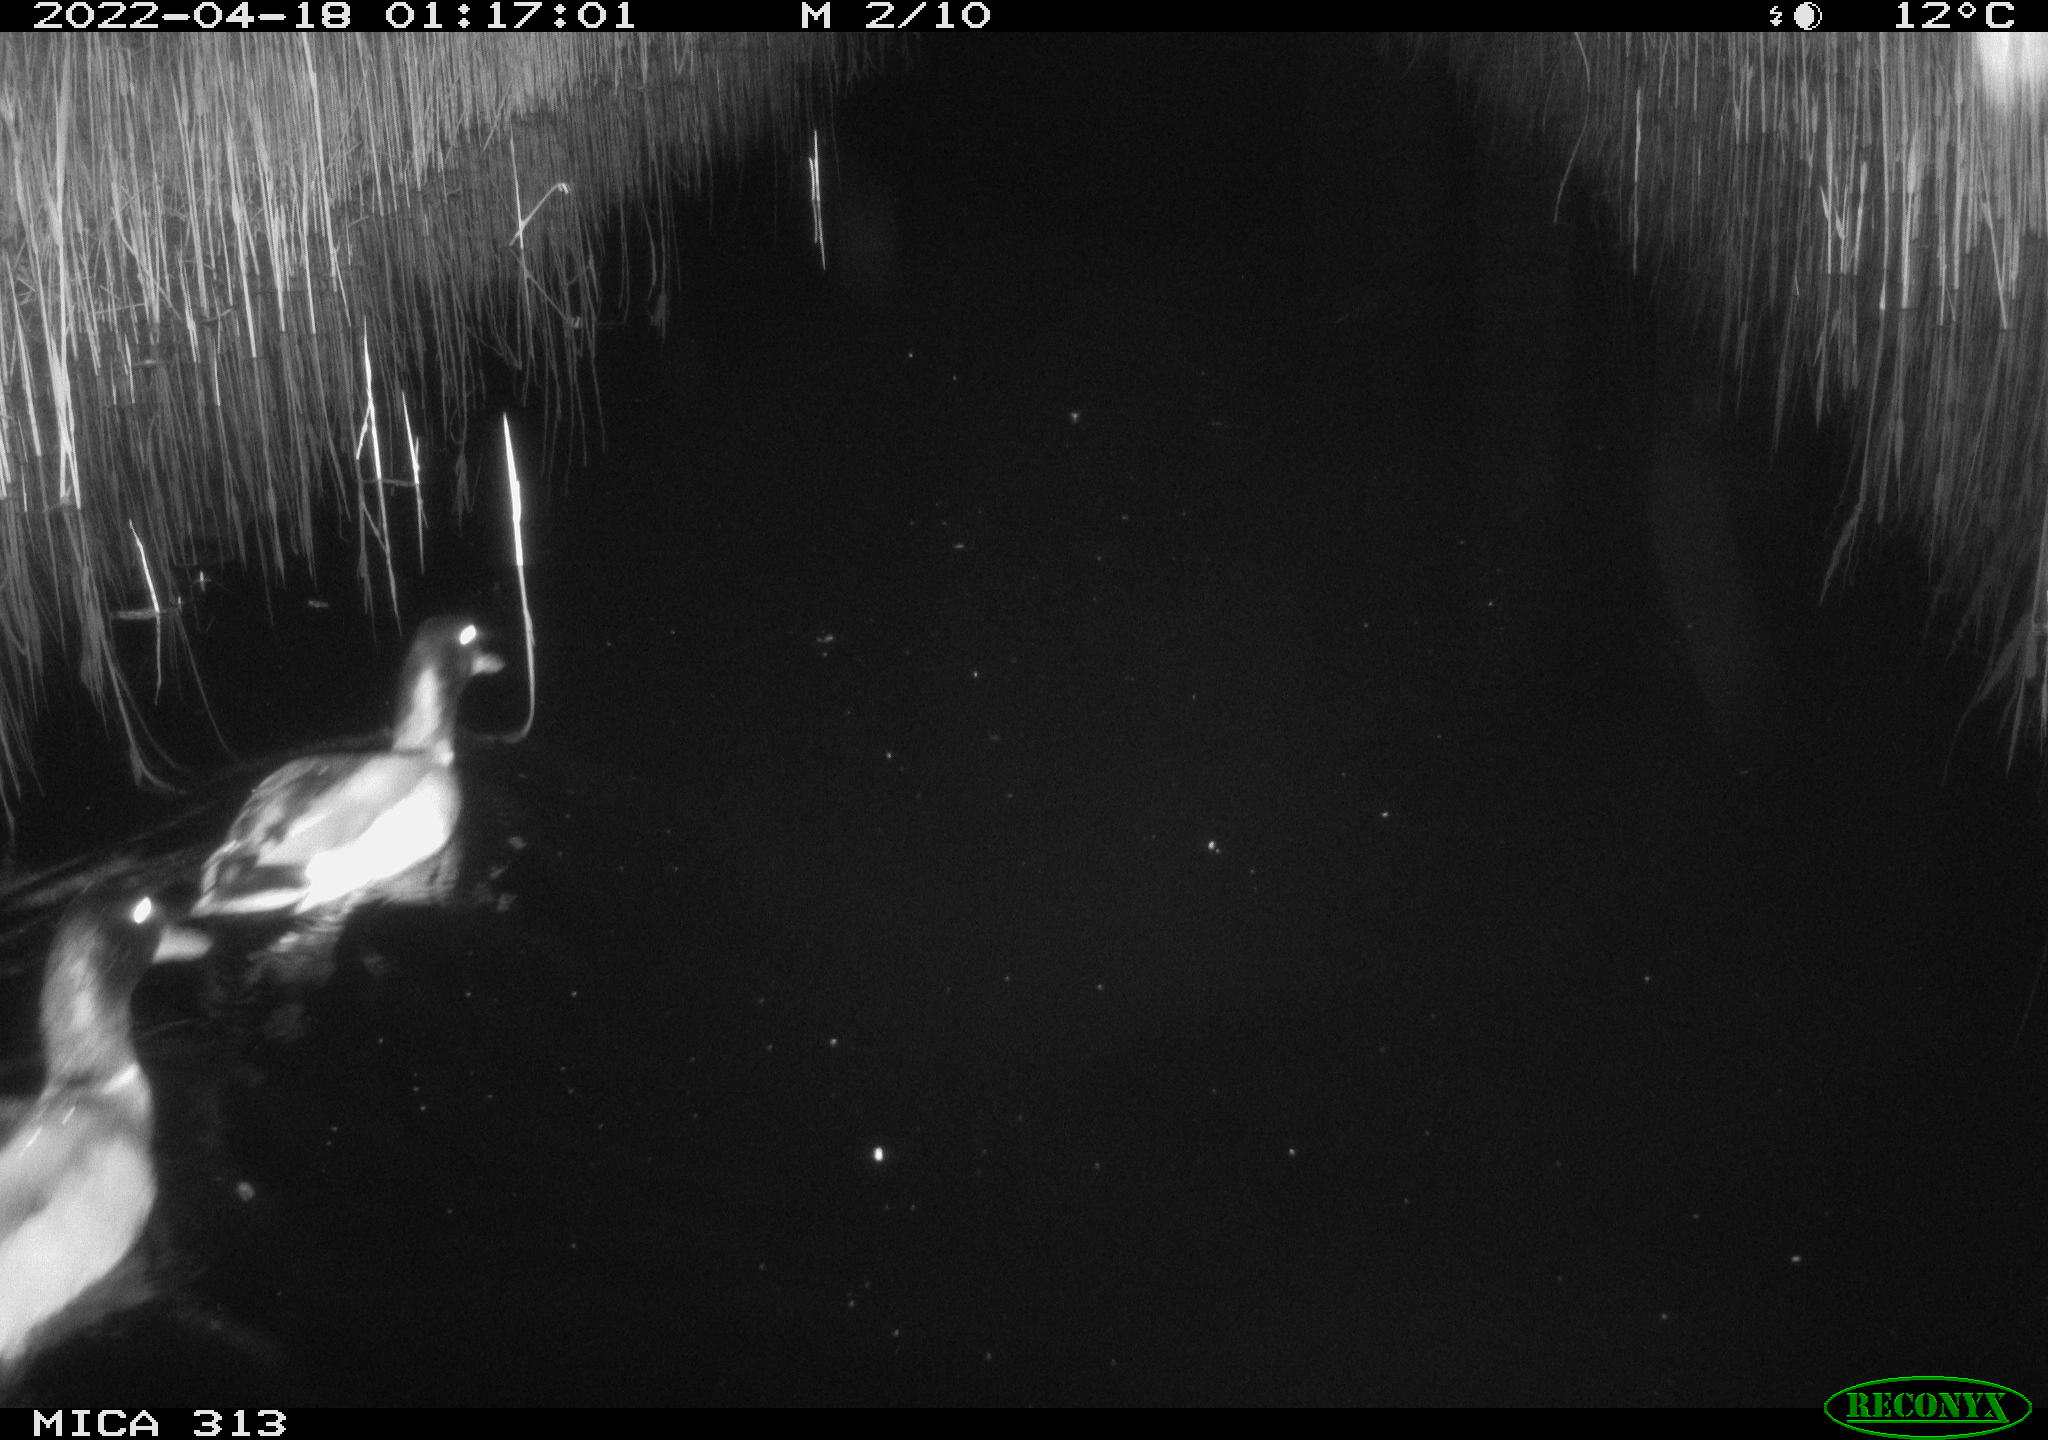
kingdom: Animalia
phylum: Chordata
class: Aves
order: Anseriformes
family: Anatidae
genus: Anas
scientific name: Anas platyrhynchos
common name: Mallard
